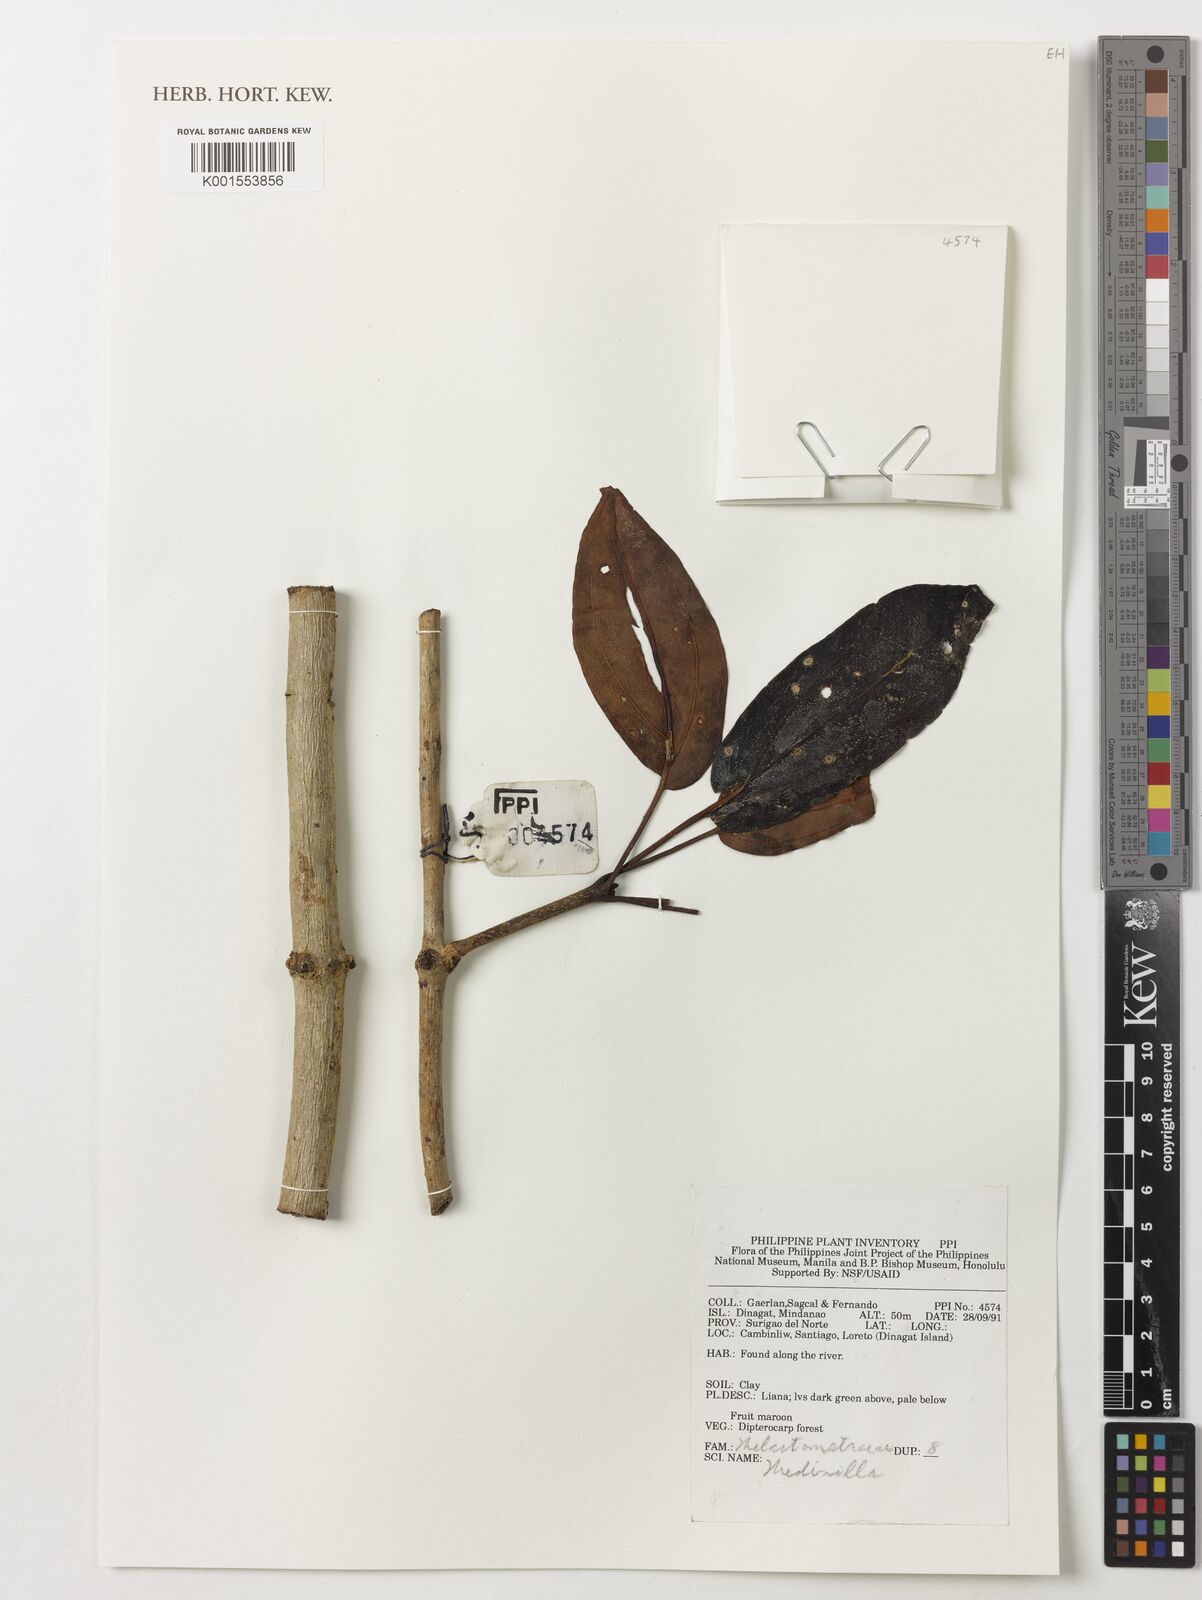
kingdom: Plantae
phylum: Tracheophyta
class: Magnoliopsida
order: Myrtales
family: Melastomataceae
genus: Medinilla
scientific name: Medinilla
